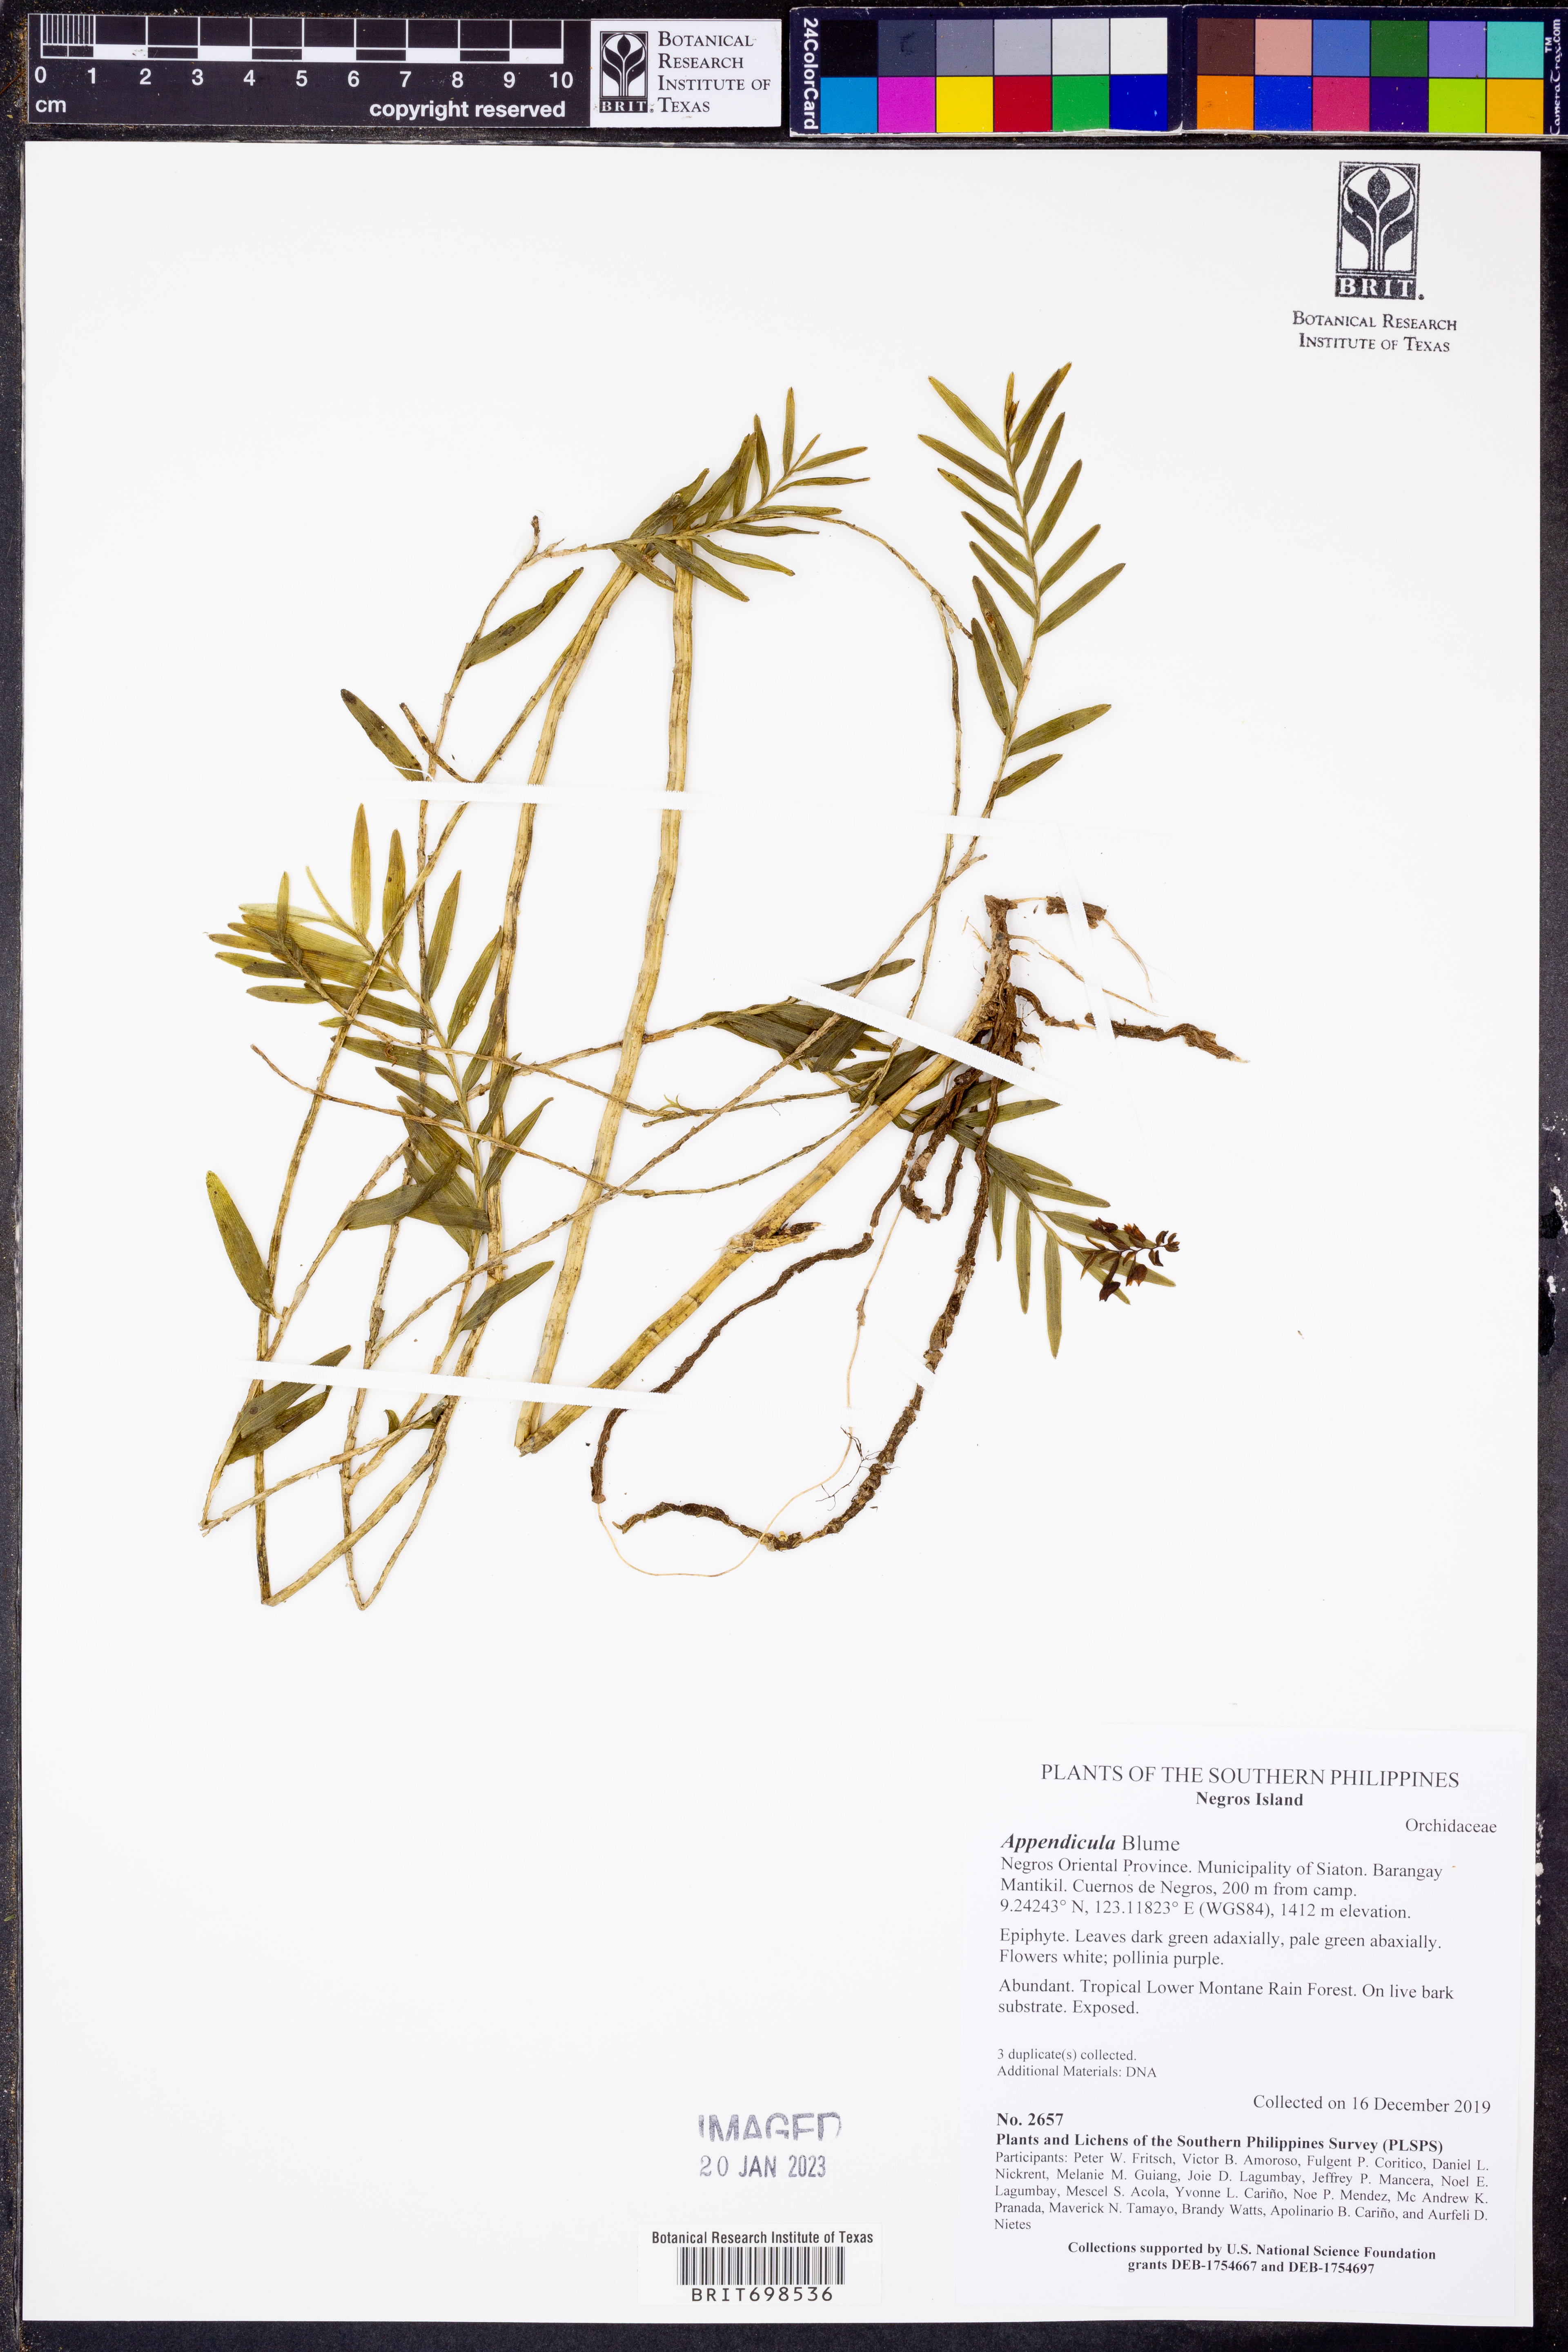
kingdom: Plantae
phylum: Tracheophyta
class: Liliopsida
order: Asparagales
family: Orchidaceae
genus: Appendicula
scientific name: Appendicula
